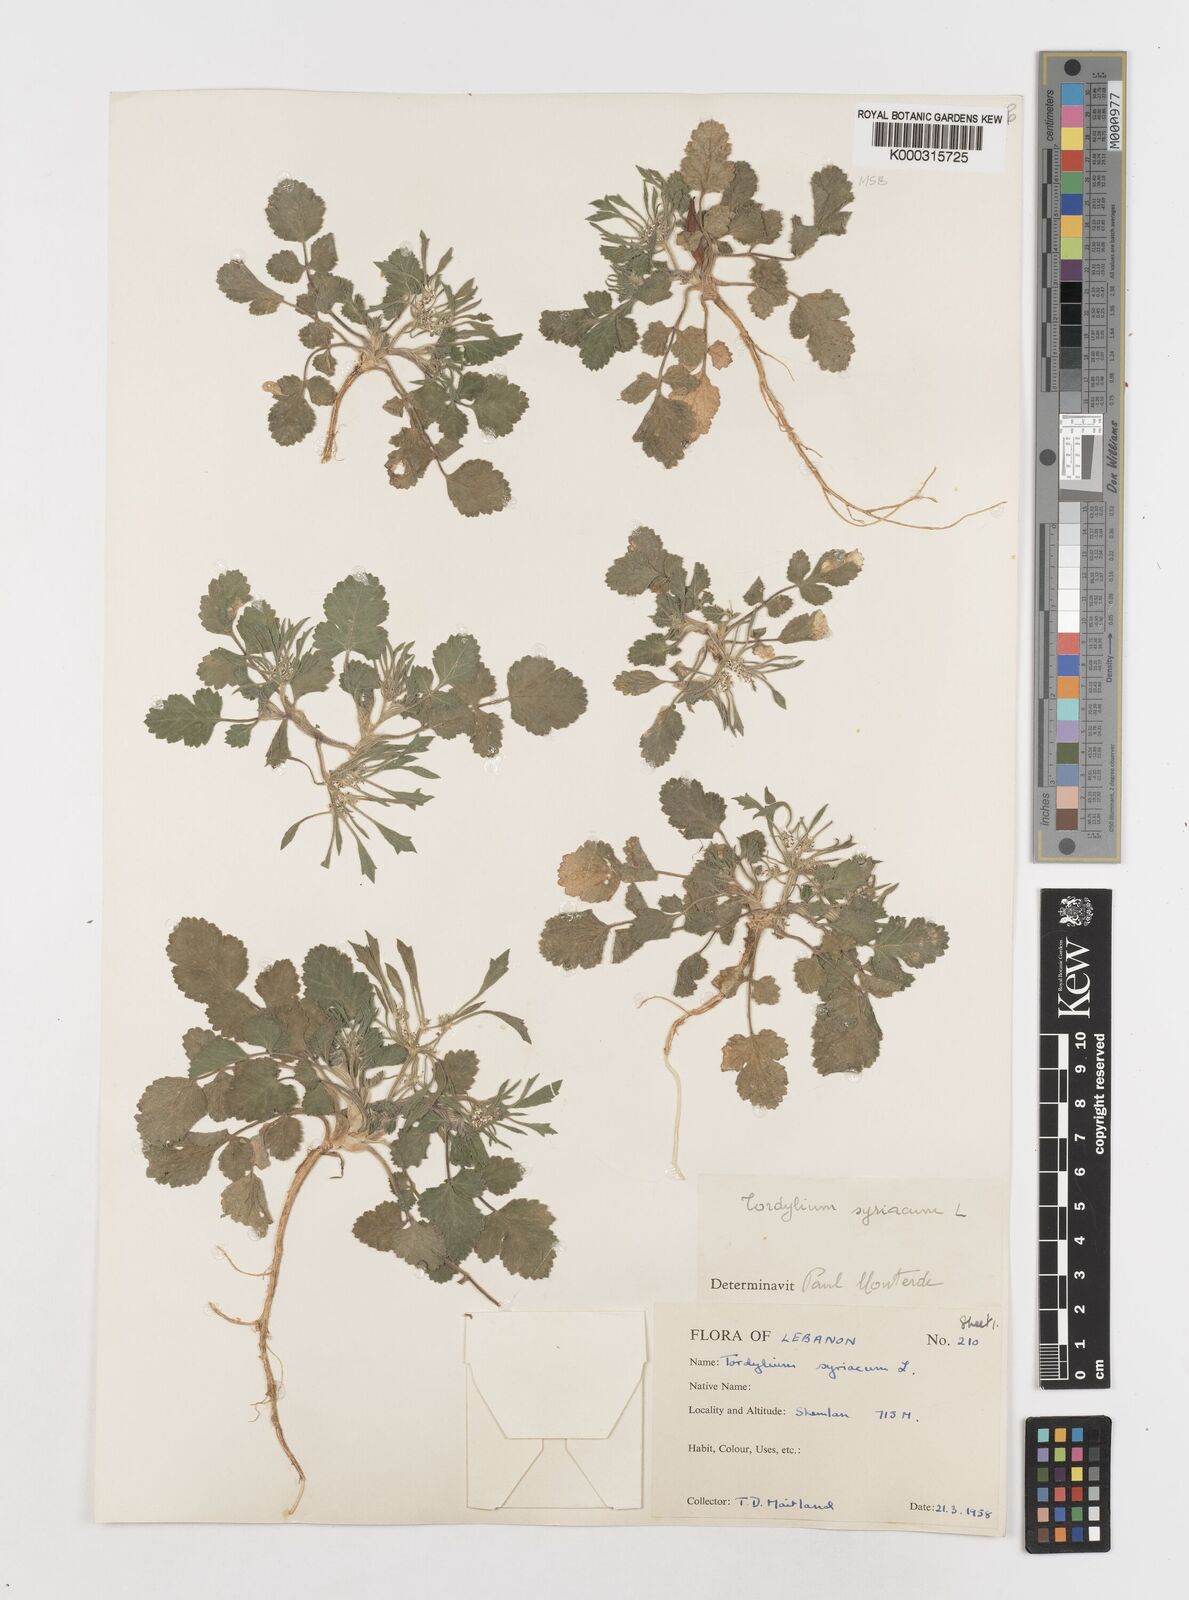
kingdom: Plantae
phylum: Tracheophyta
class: Magnoliopsida
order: Apiales
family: Apiaceae
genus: Tordylium
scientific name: Tordylium syriacum
